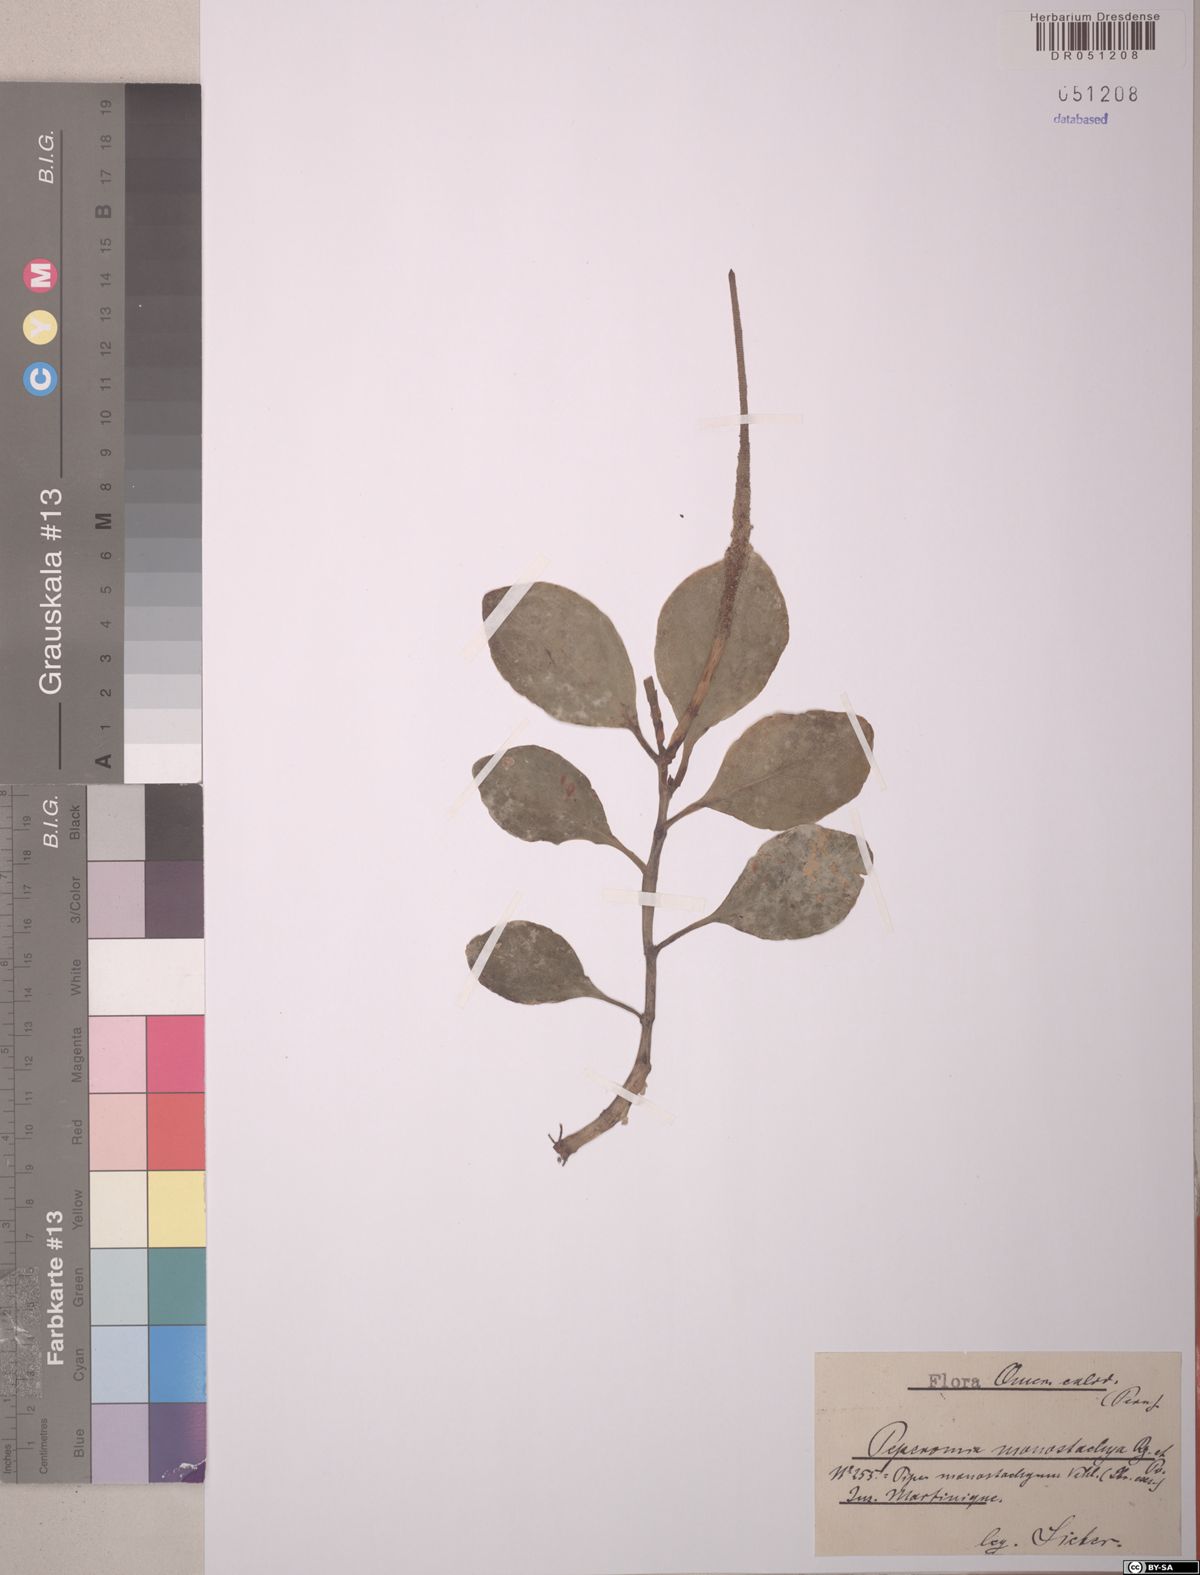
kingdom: Plantae
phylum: Tracheophyta
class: Magnoliopsida
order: Piperales
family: Piperaceae
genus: Peperomia
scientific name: Peperomia monostachya
